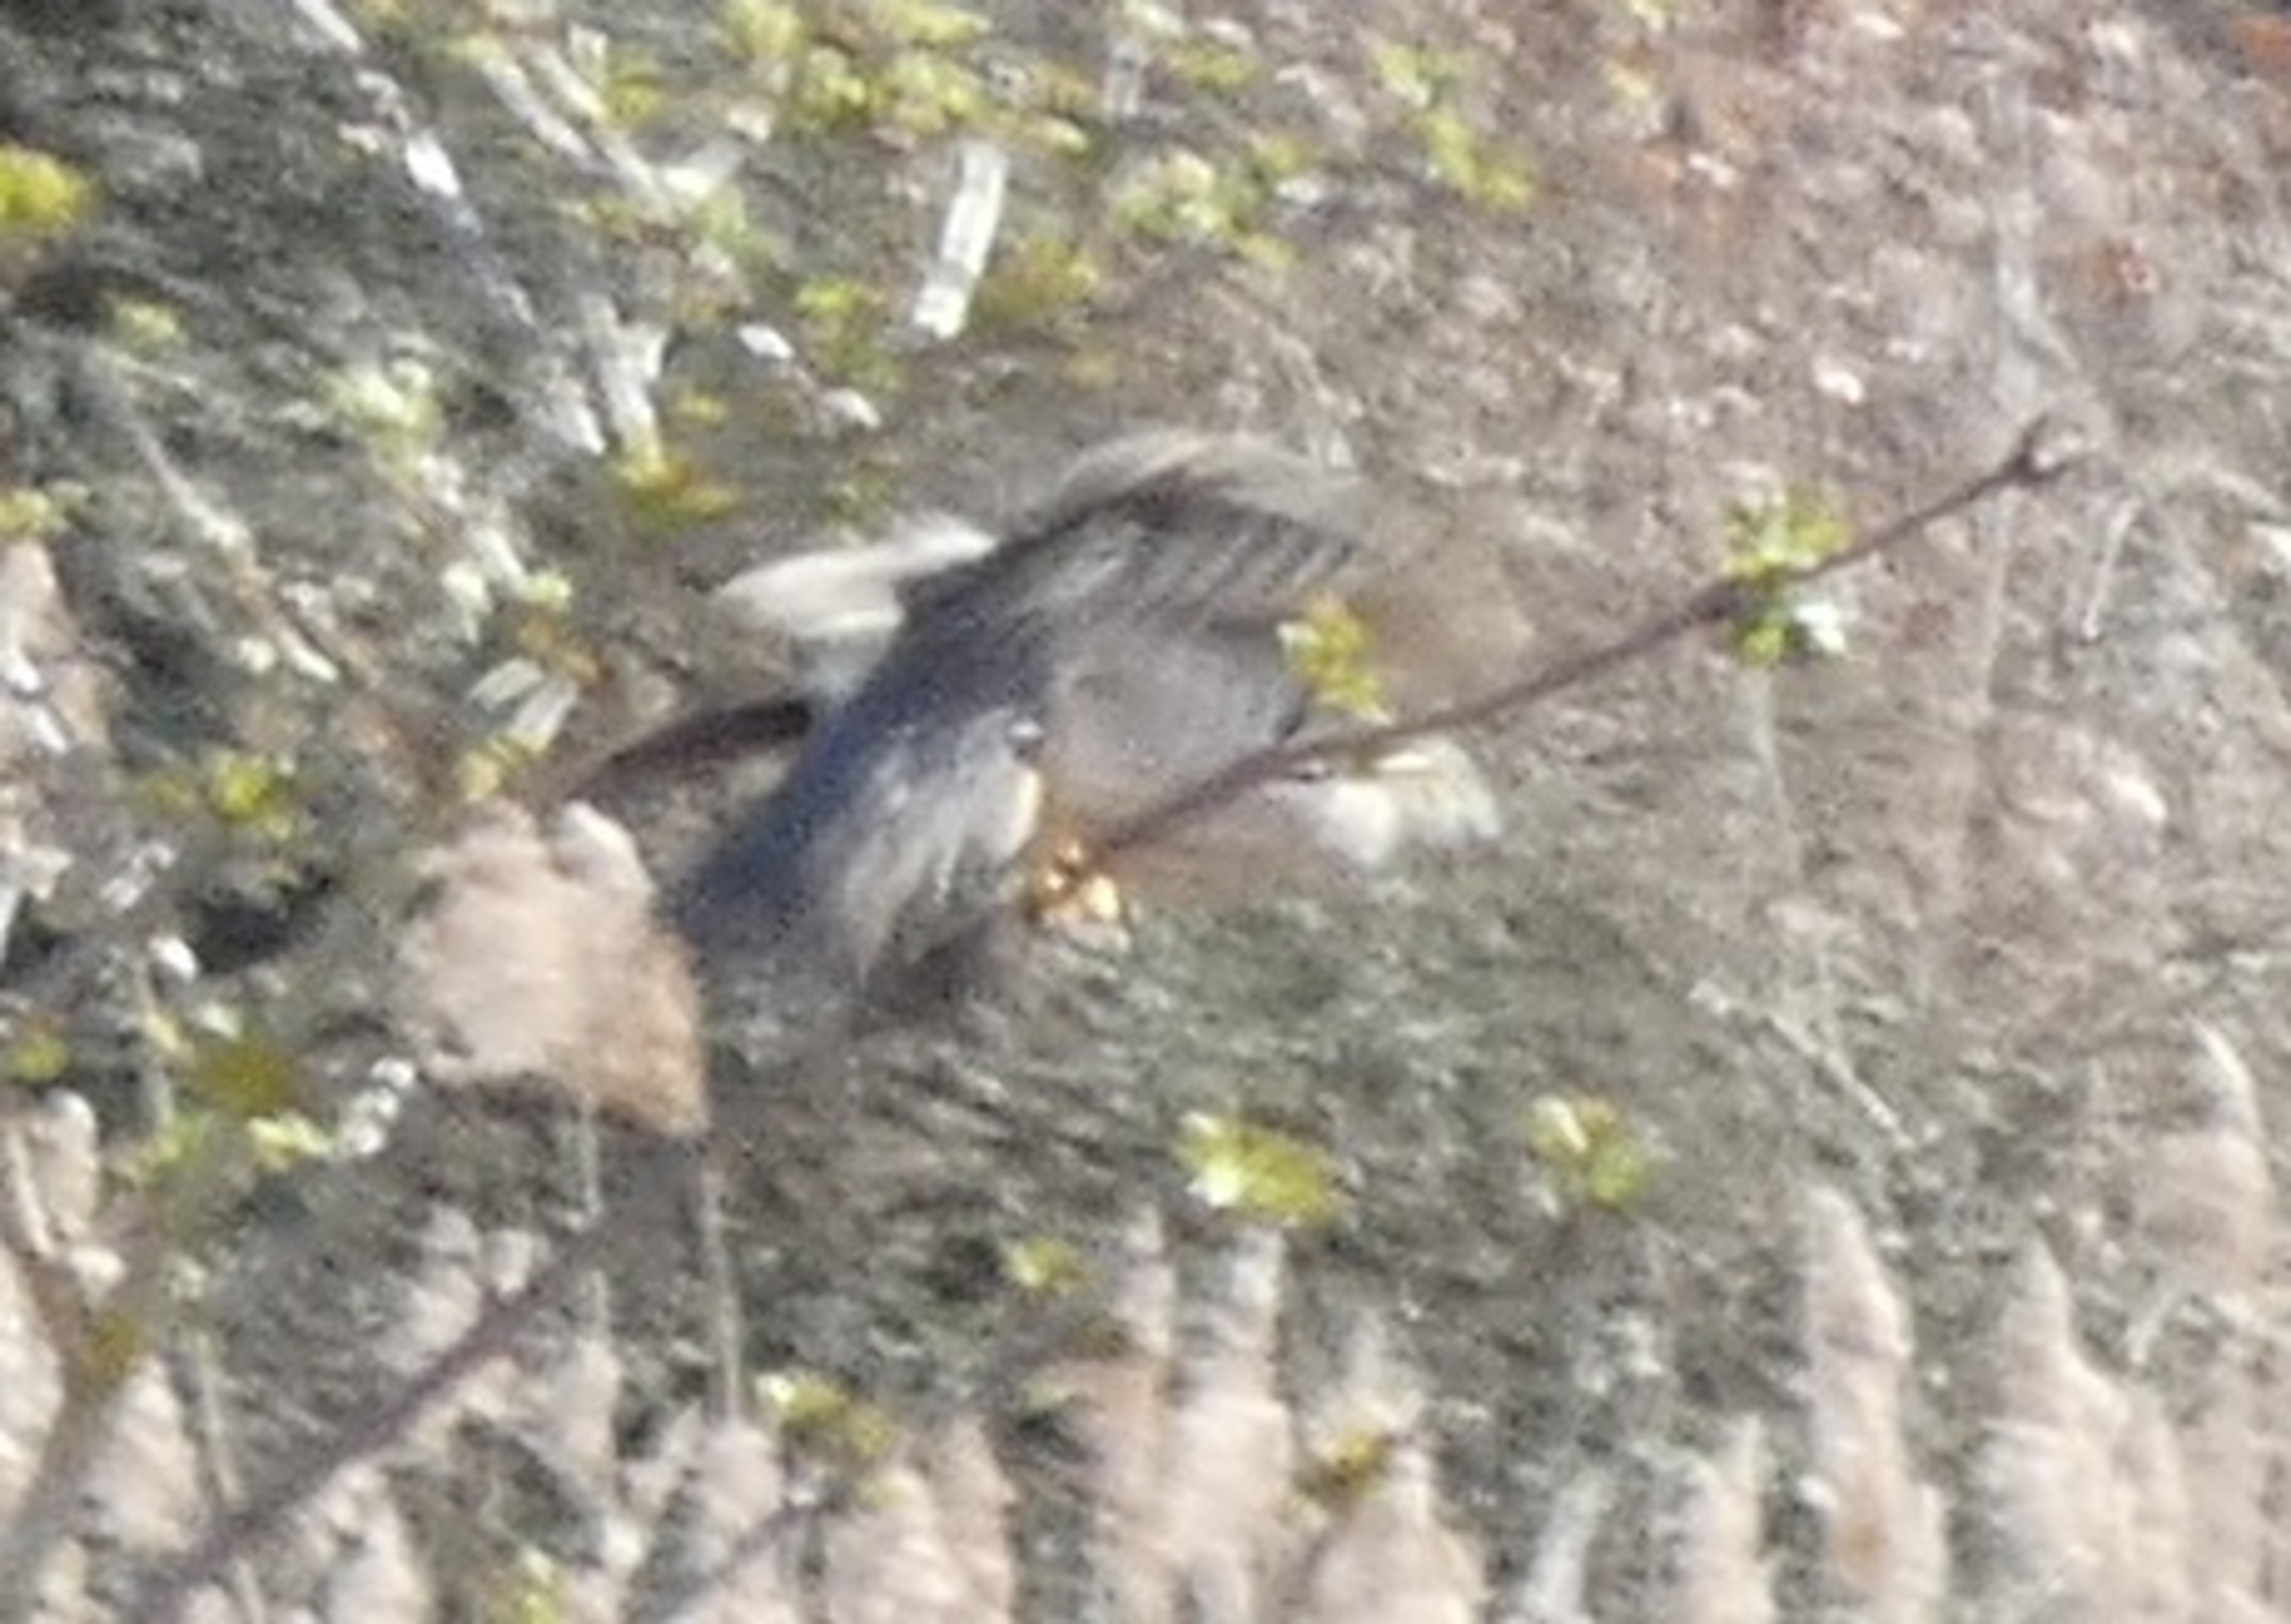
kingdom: Animalia
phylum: Chordata
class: Aves
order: Accipitriformes
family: Accipitridae
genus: Accipiter
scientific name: Accipiter nisus
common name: Spurvehøg
